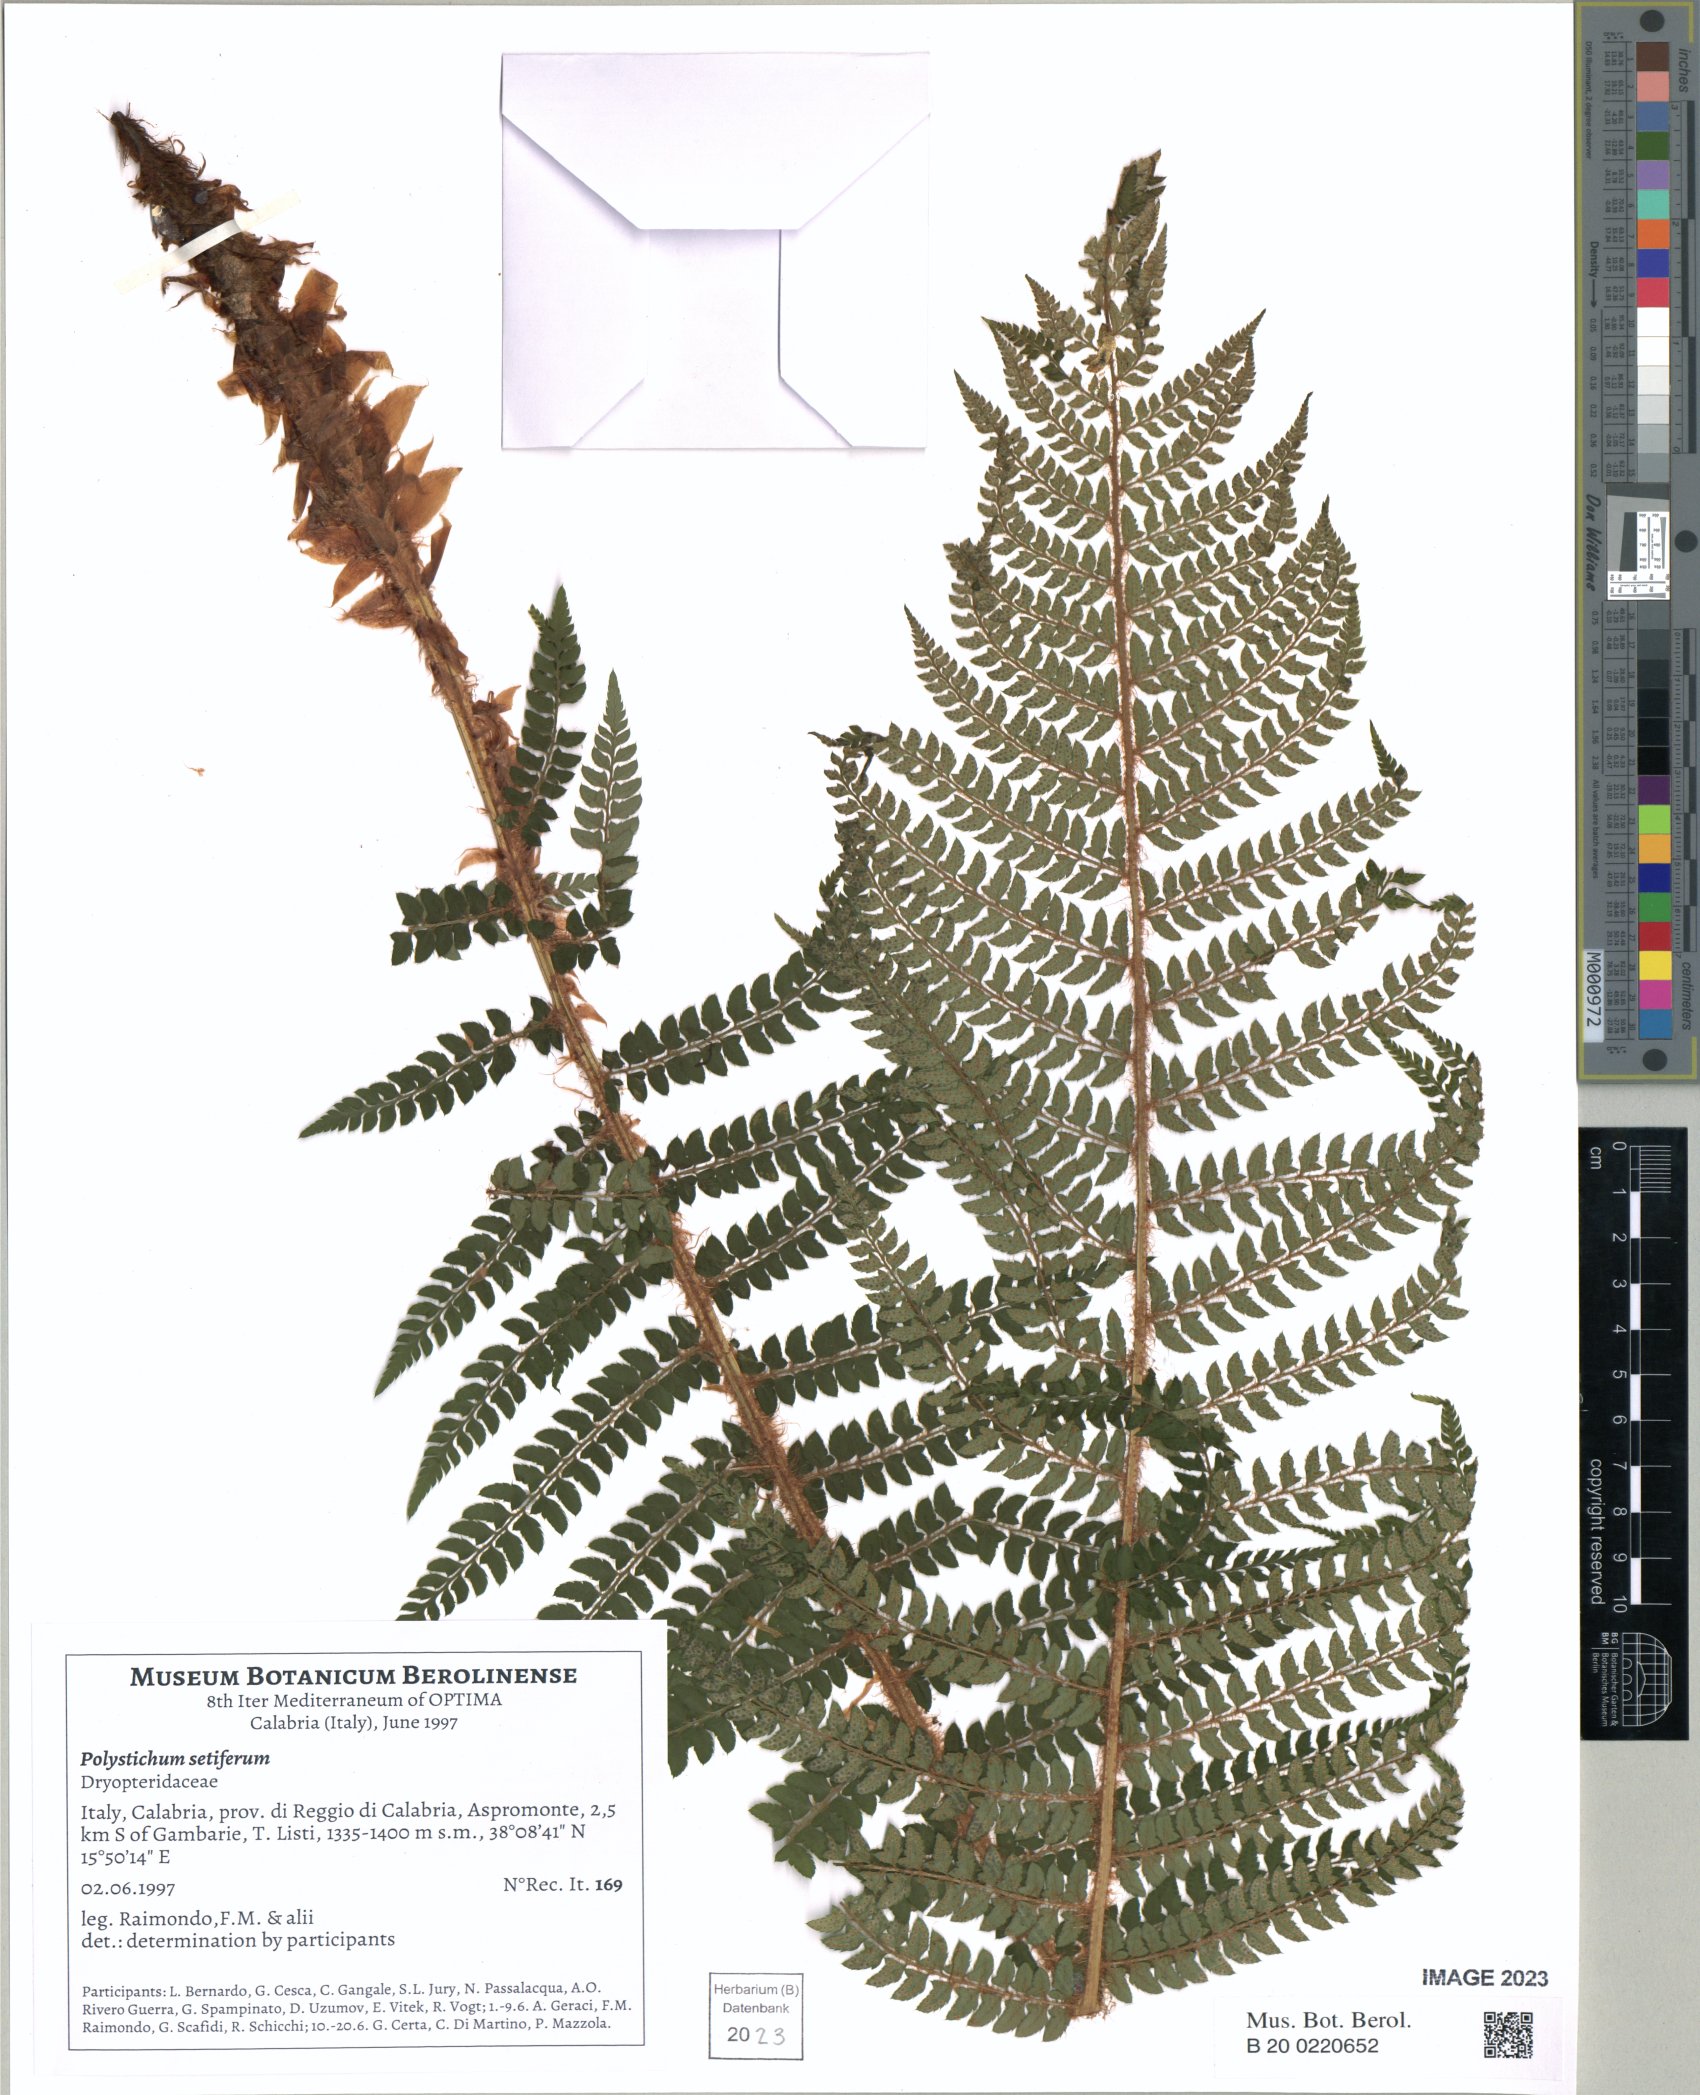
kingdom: Plantae
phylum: Tracheophyta
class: Polypodiopsida
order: Polypodiales
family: Dryopteridaceae
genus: Polystichum
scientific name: Polystichum setiferum
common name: Soft shield-fern
